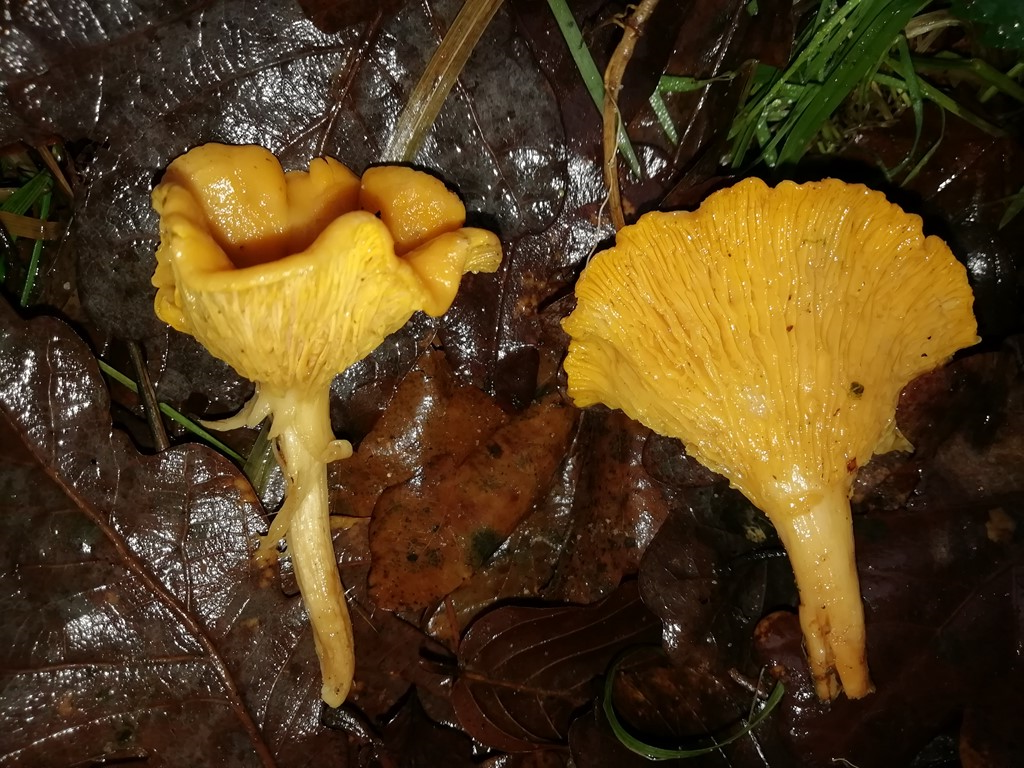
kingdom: Fungi
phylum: Basidiomycota
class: Agaricomycetes
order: Cantharellales
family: Hydnaceae
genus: Cantharellus
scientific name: Cantharellus cibarius
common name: almindelig kantarel
